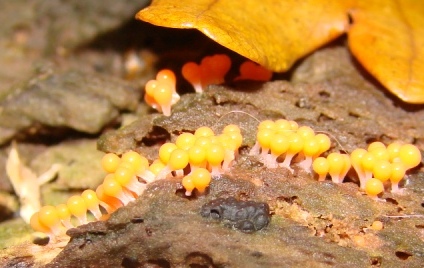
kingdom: Protozoa
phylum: Mycetozoa
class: Myxomycetes
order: Trichiales
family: Arcyriaceae
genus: Hemitrichia
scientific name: Hemitrichia decipiens
